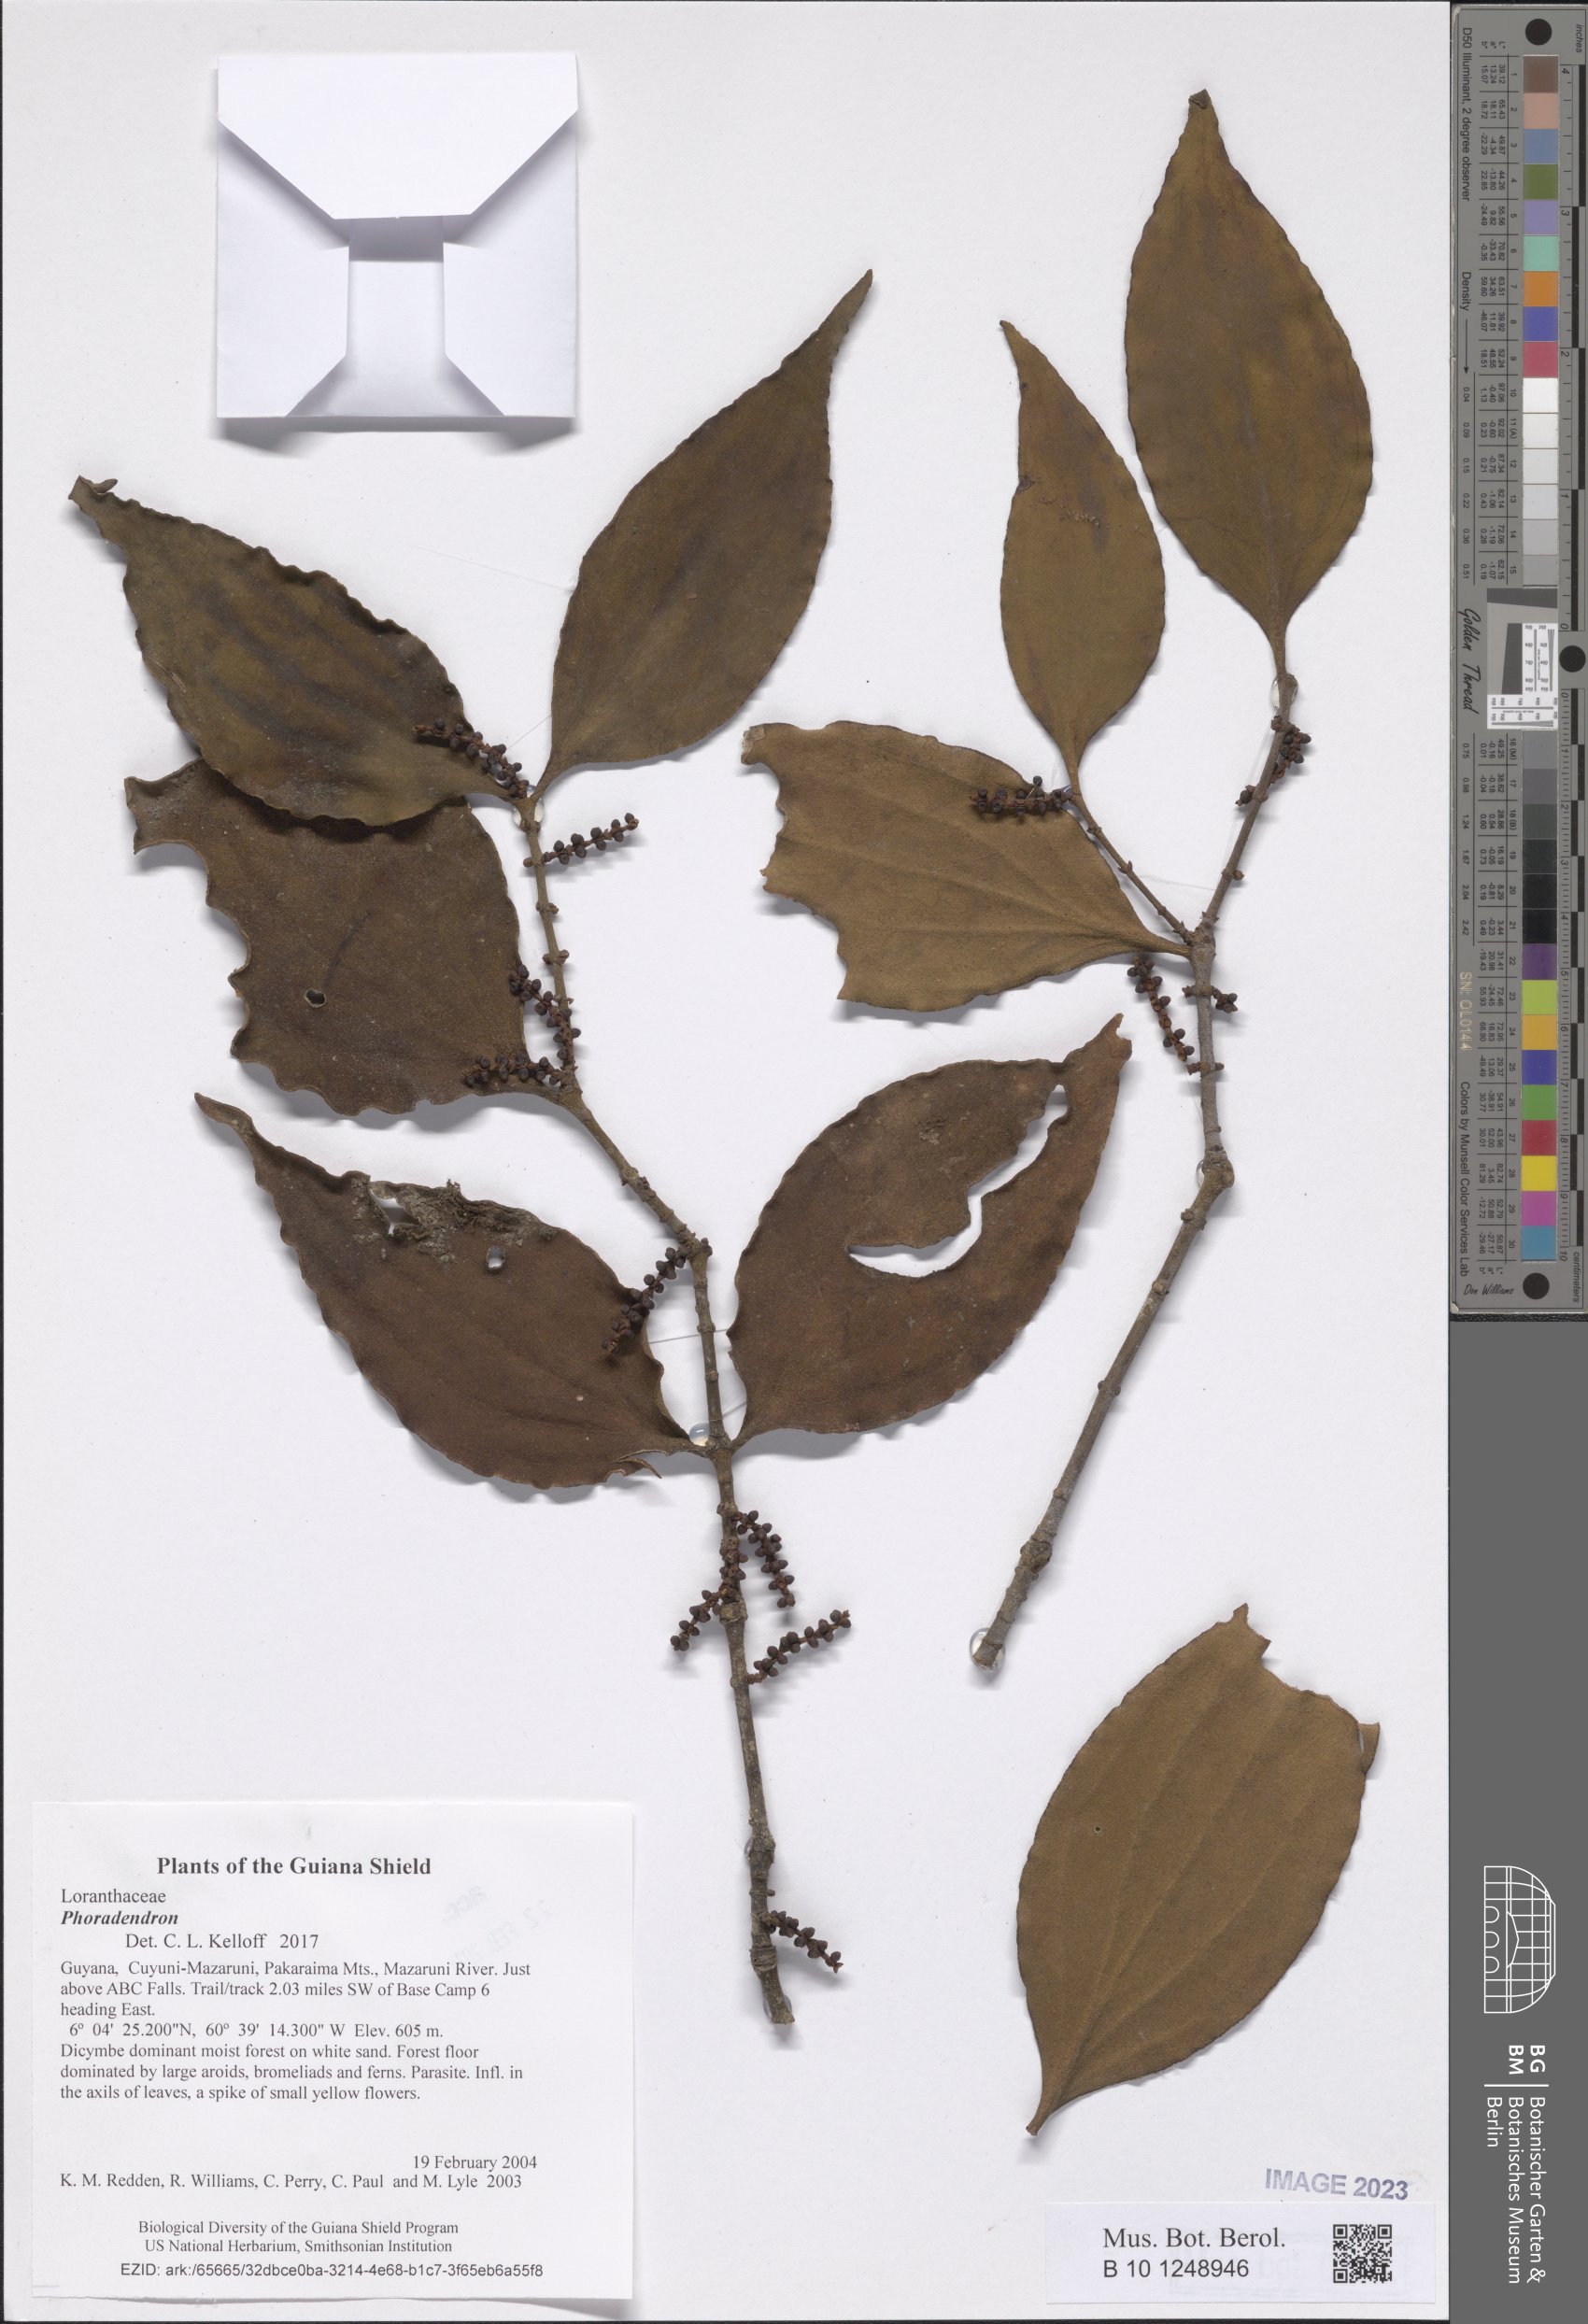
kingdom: Plantae
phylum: Tracheophyta
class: Magnoliopsida
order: Santalales
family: Viscaceae
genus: Phoradendron
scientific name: Phoradendron
